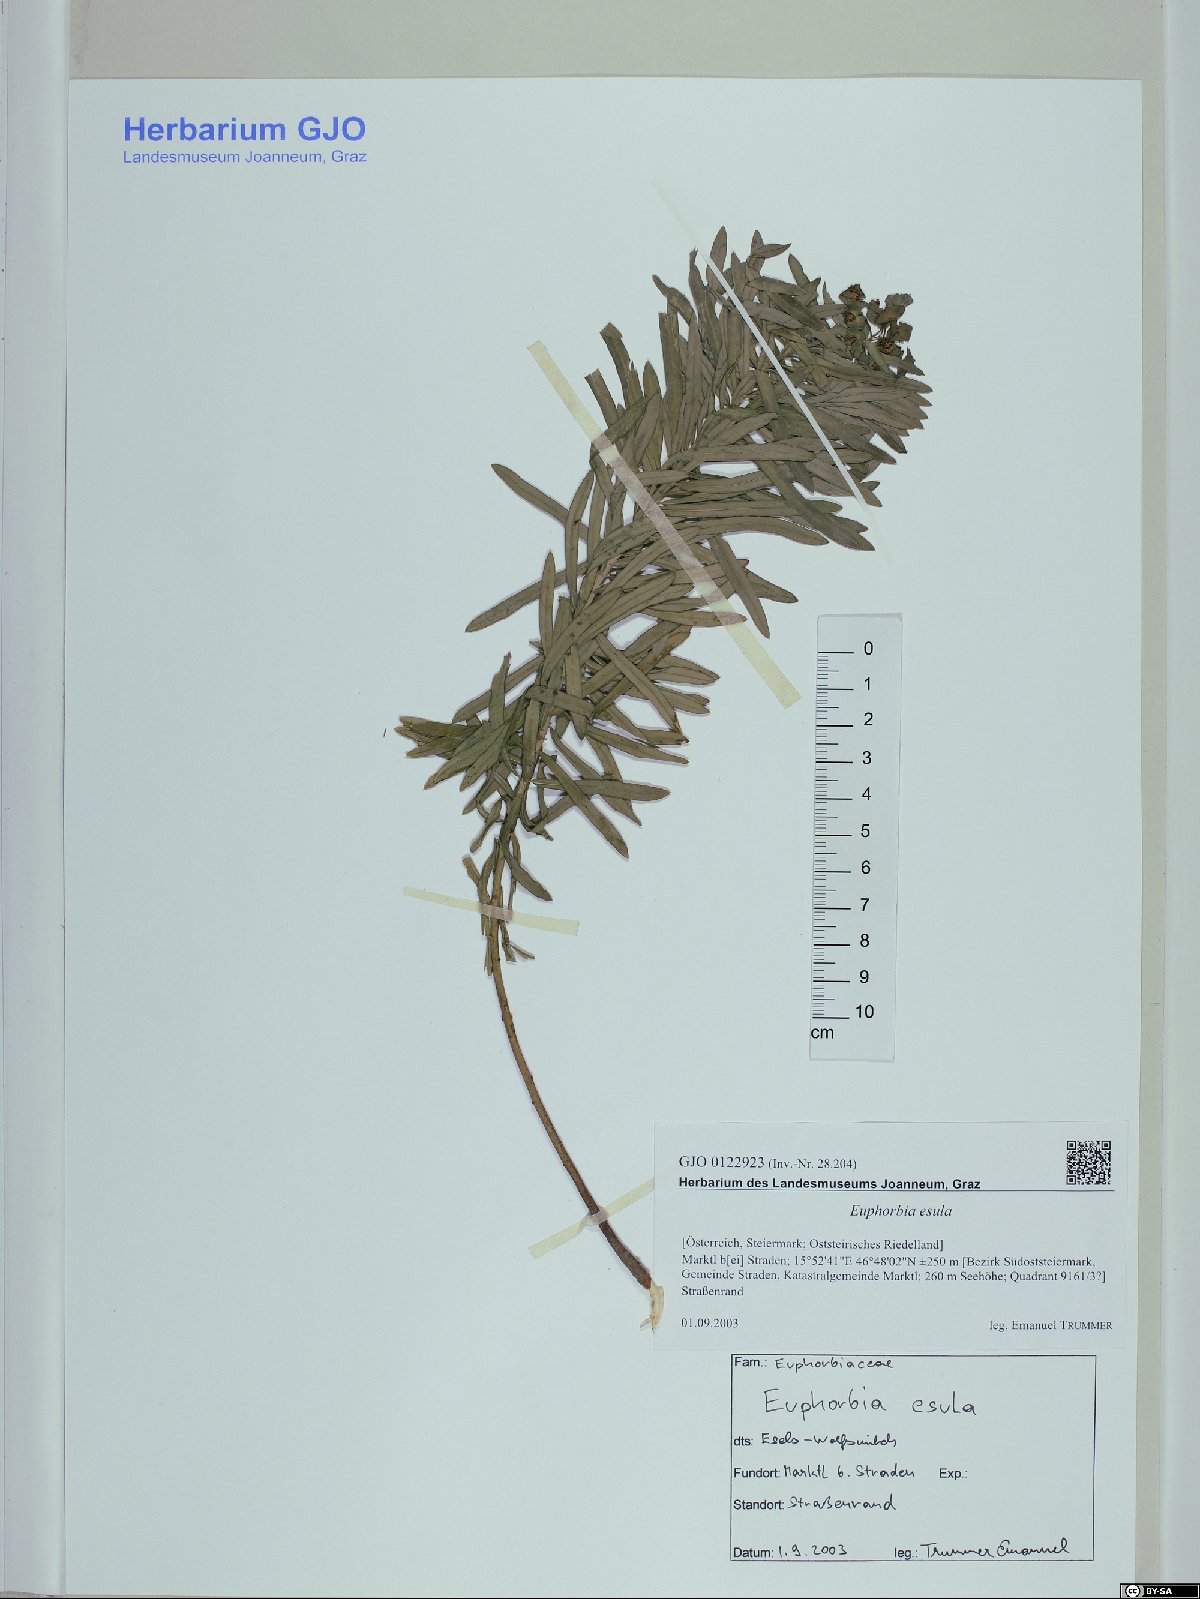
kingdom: Plantae
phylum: Tracheophyta
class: Magnoliopsida
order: Malpighiales
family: Euphorbiaceae
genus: Euphorbia
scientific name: Euphorbia esula
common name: Leafy spurge
